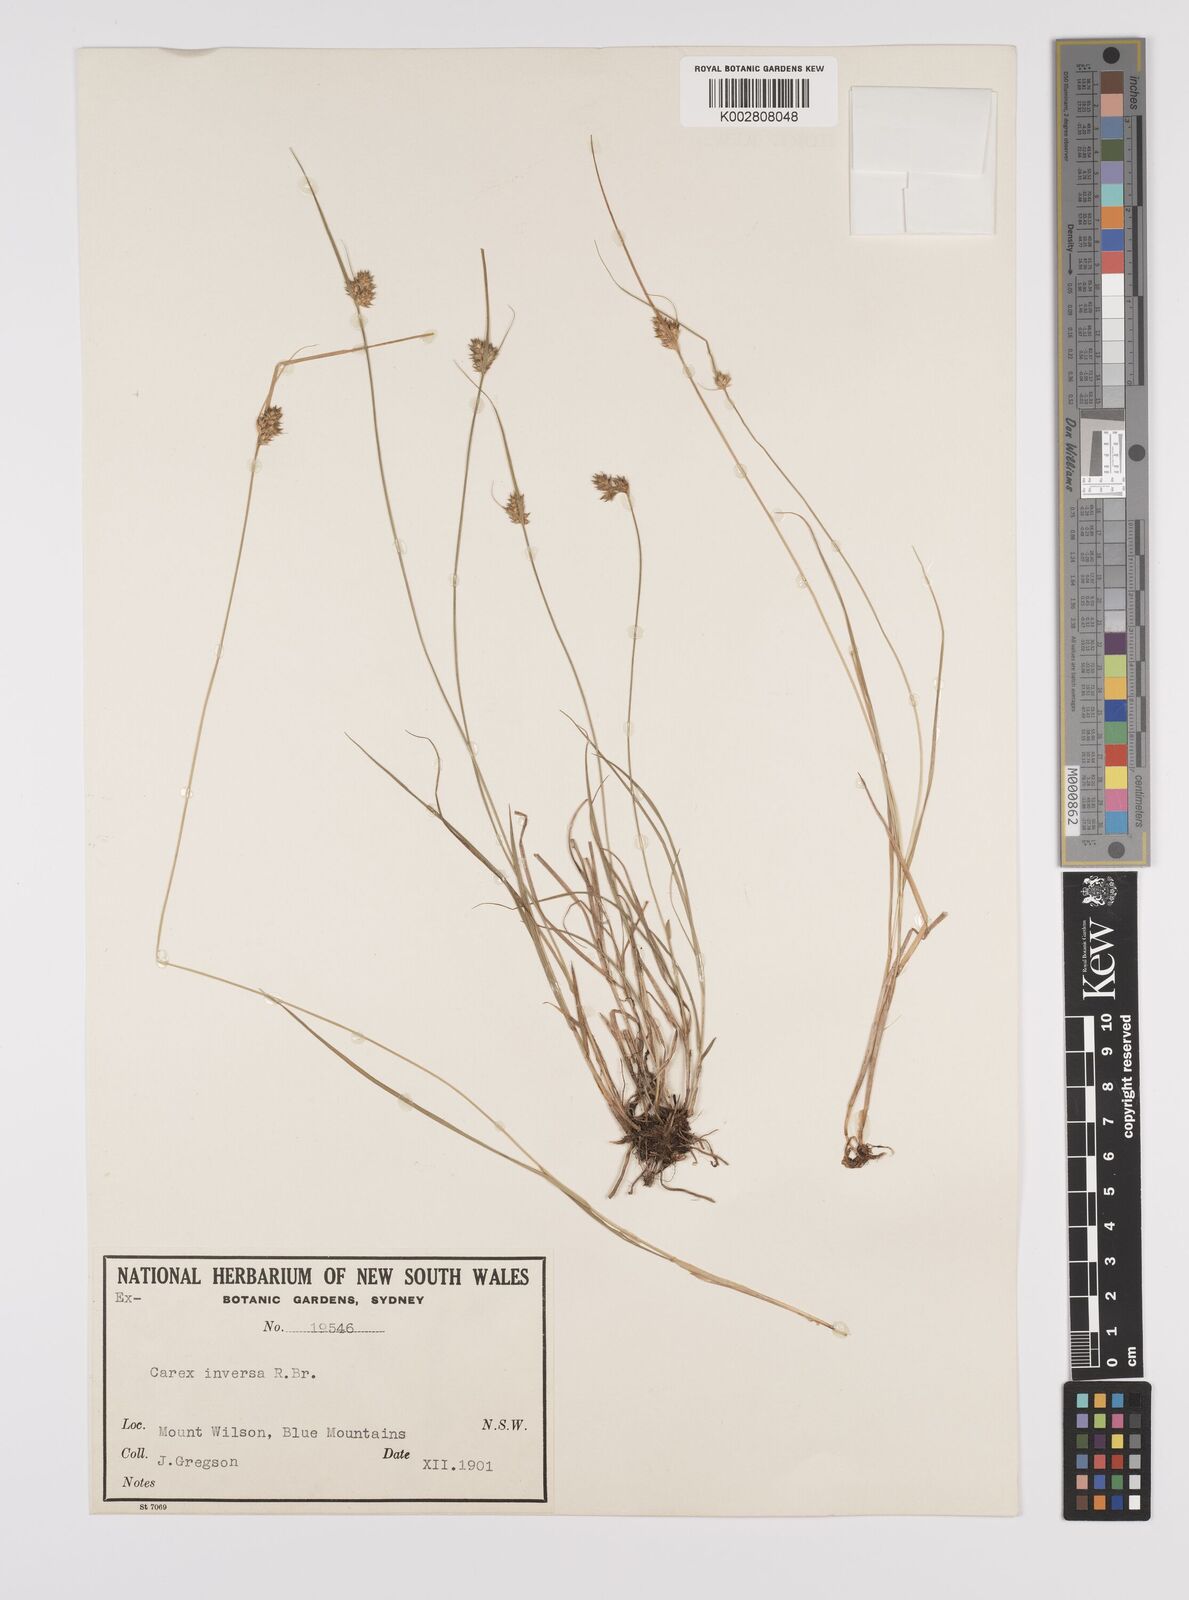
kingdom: Plantae
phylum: Tracheophyta
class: Liliopsida
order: Poales
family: Cyperaceae
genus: Carex
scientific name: Carex inversa
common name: Knob sedge
